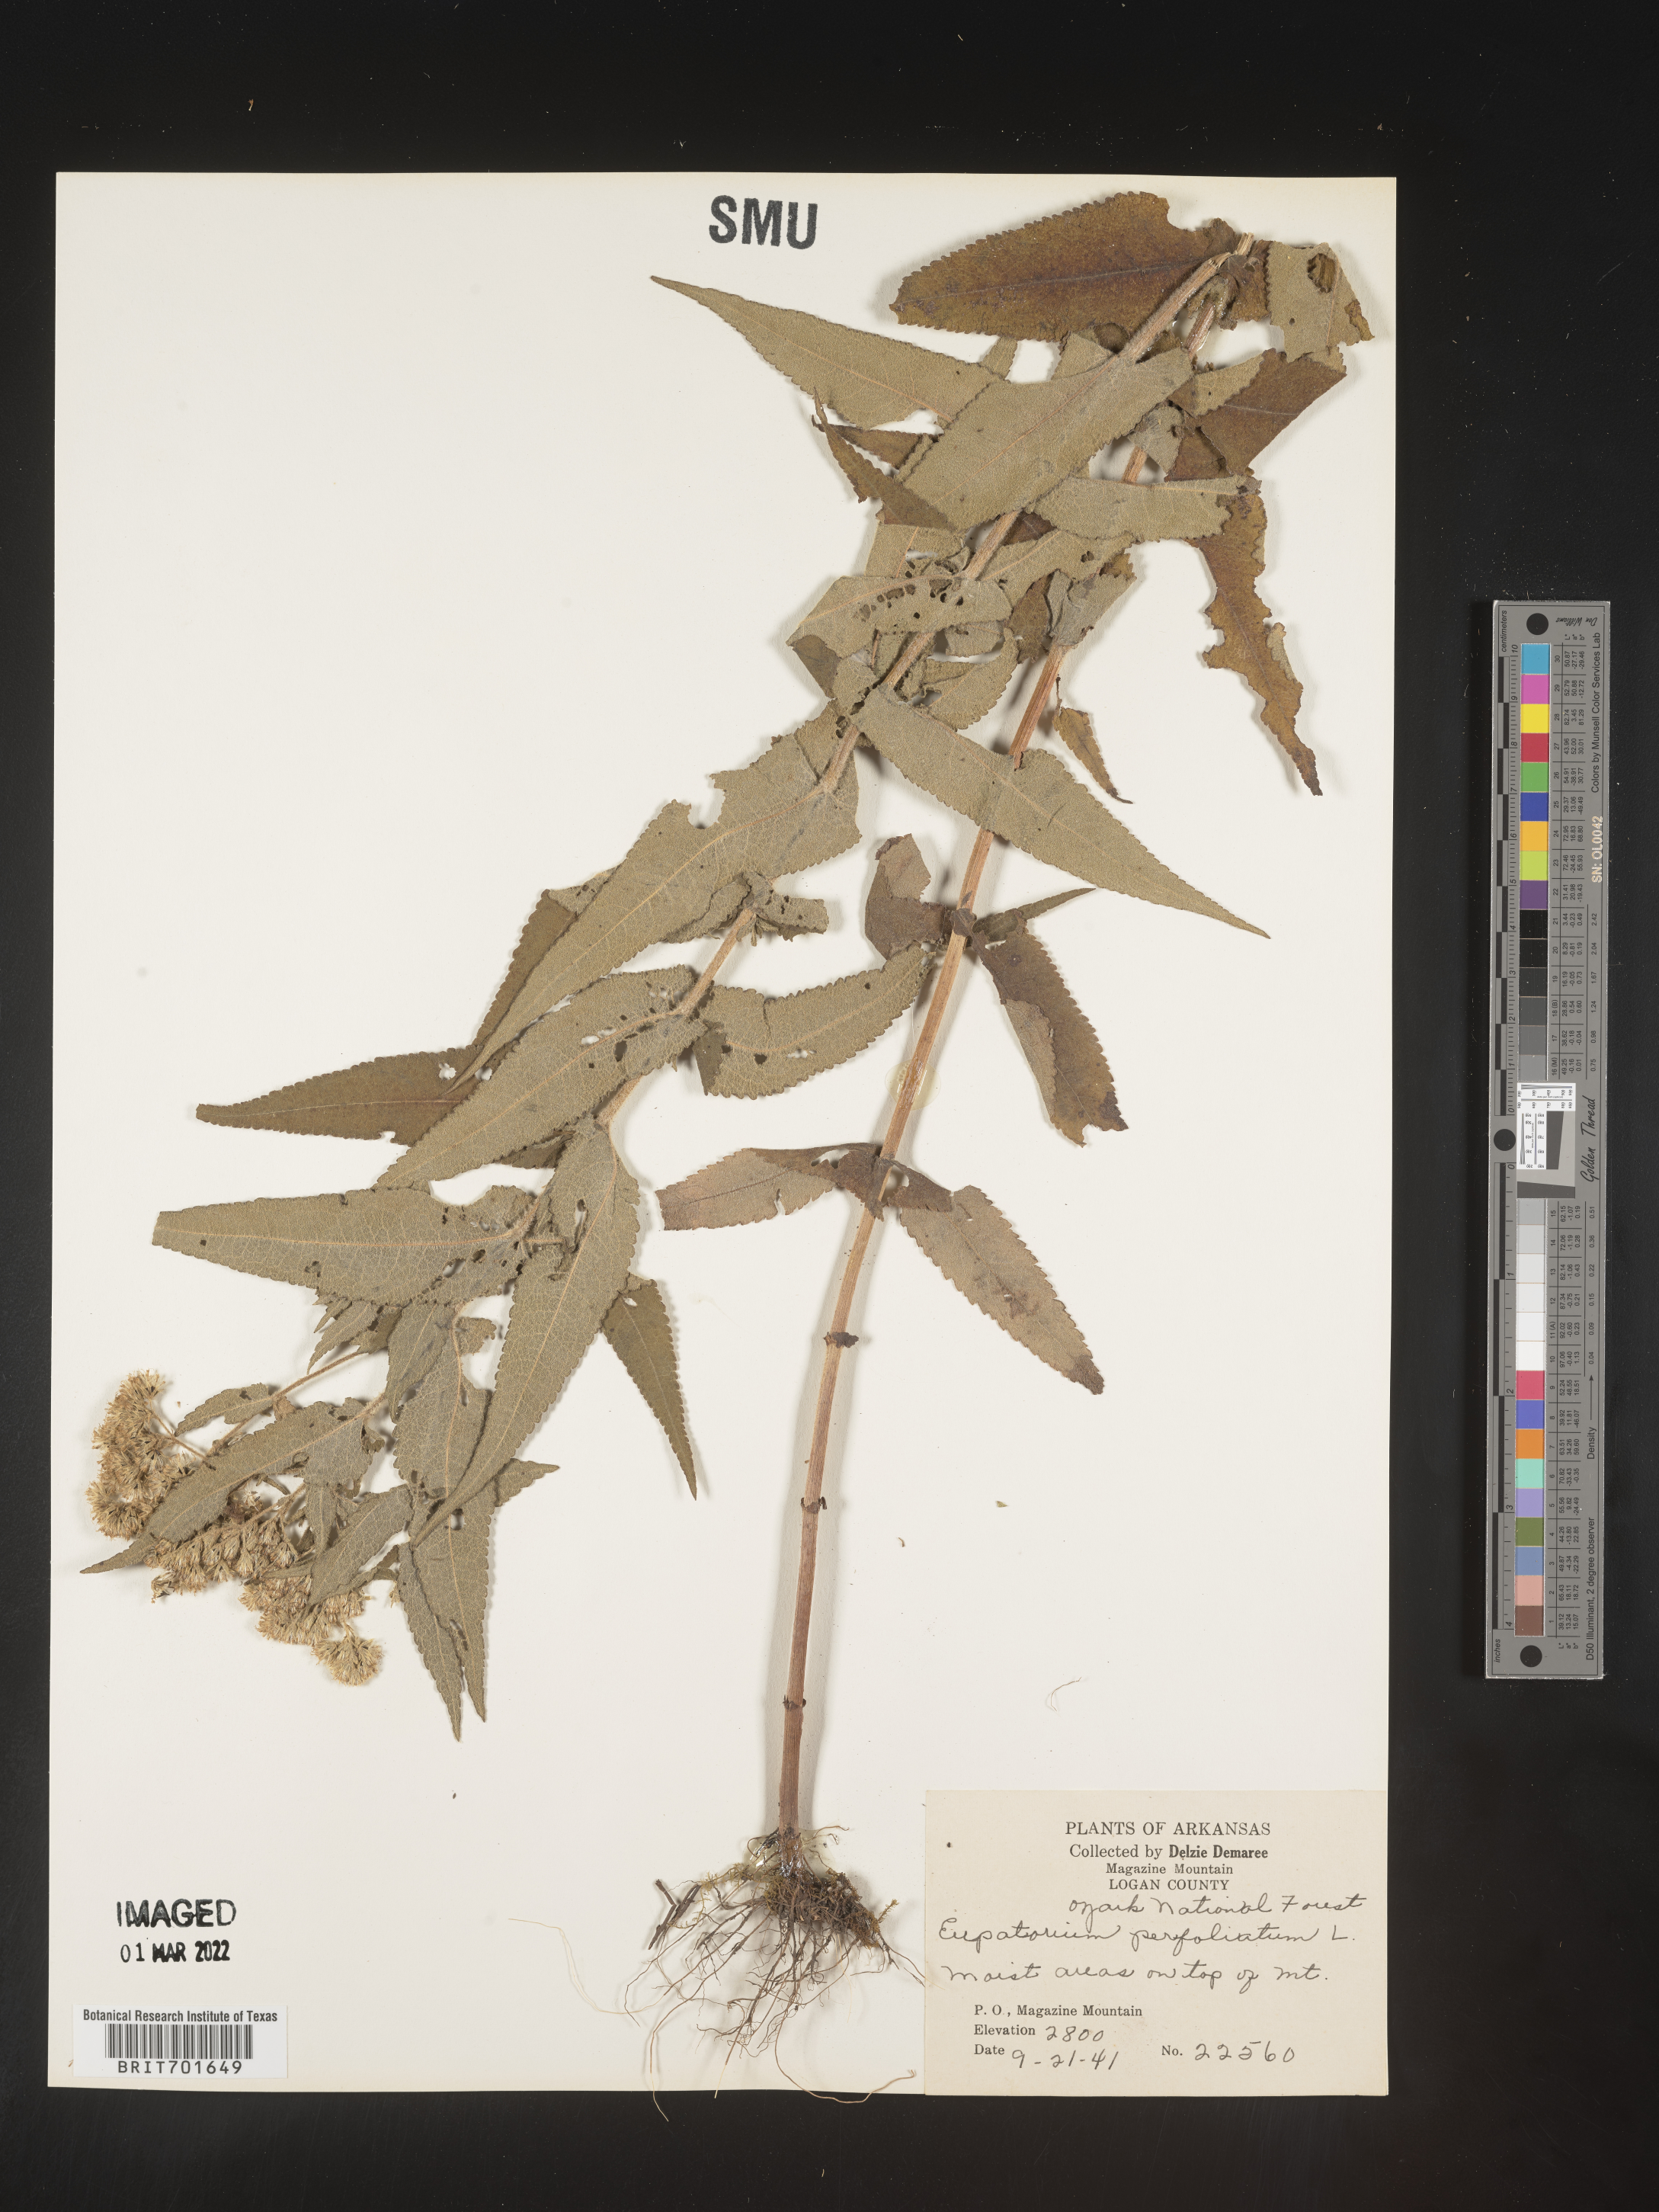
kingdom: Plantae
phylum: Tracheophyta
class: Magnoliopsida
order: Asterales
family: Asteraceae
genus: Eupatorium
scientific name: Eupatorium perfoliatum
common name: Boneset
